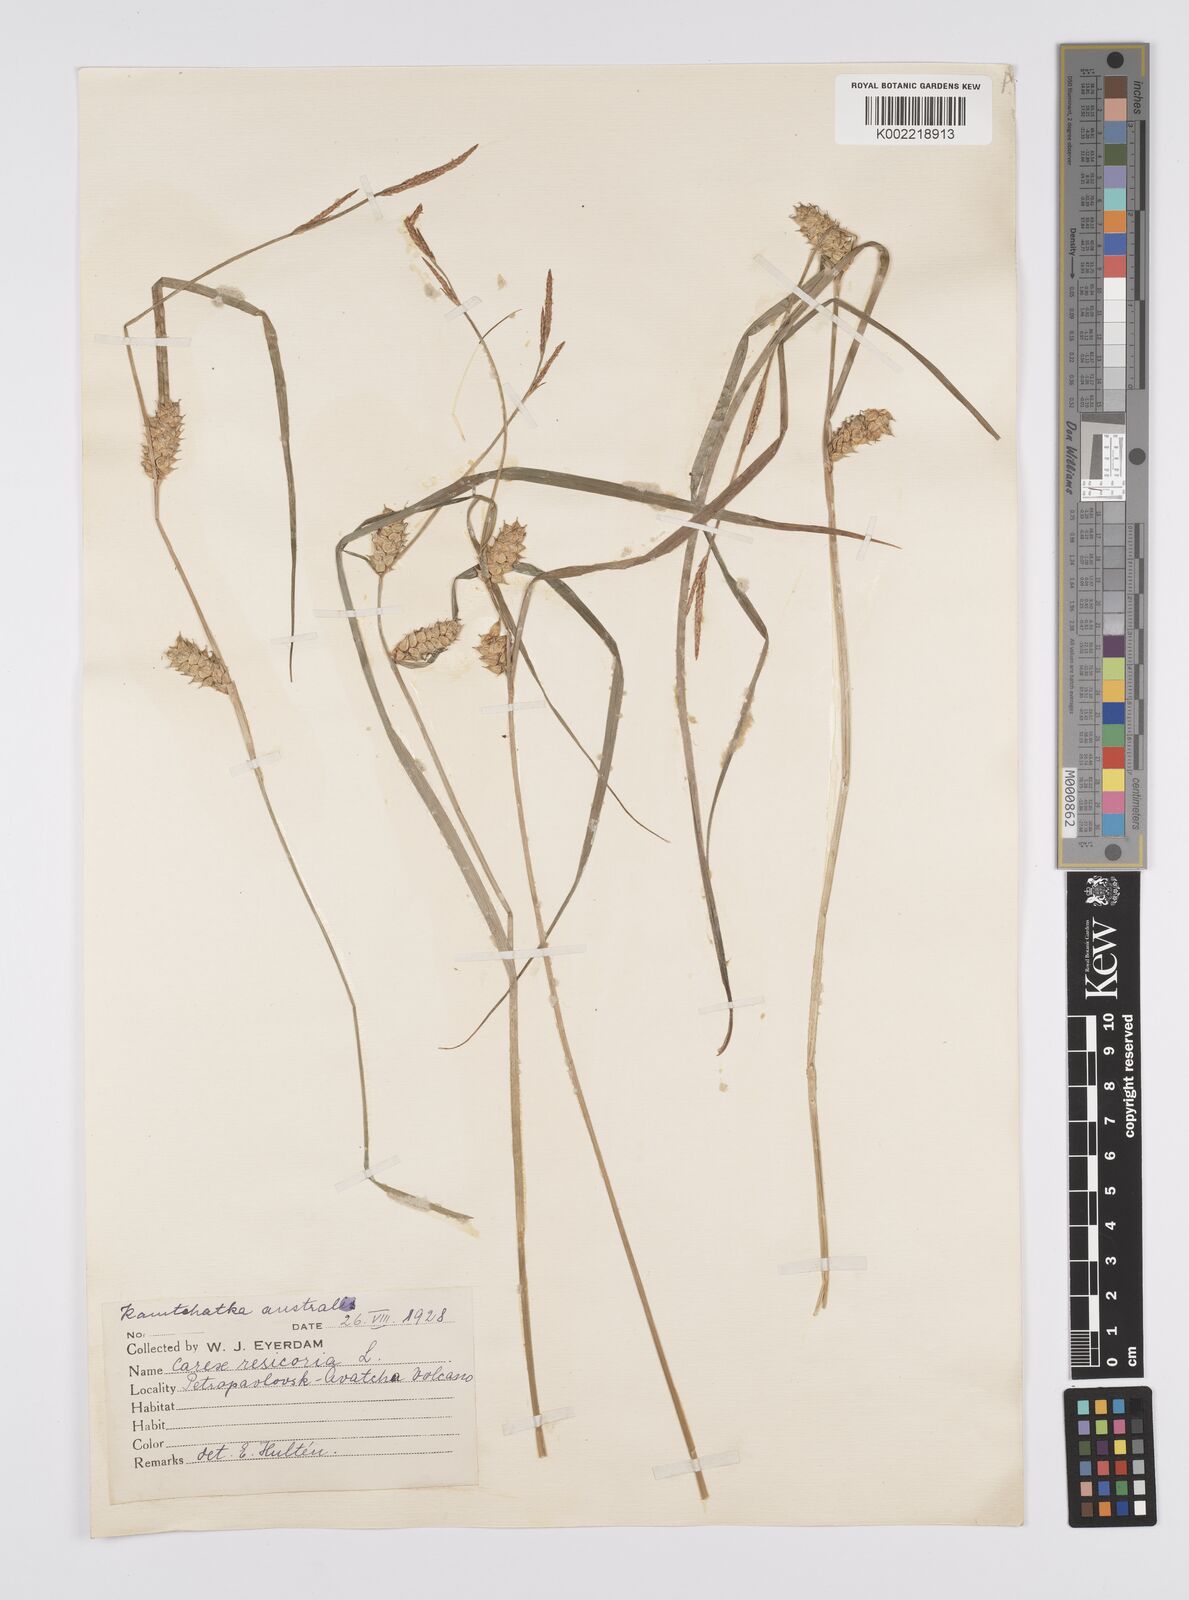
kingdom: Plantae
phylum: Tracheophyta
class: Liliopsida
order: Poales
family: Cyperaceae
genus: Carex
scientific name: Carex vesicaria
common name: Bladder-sedge
